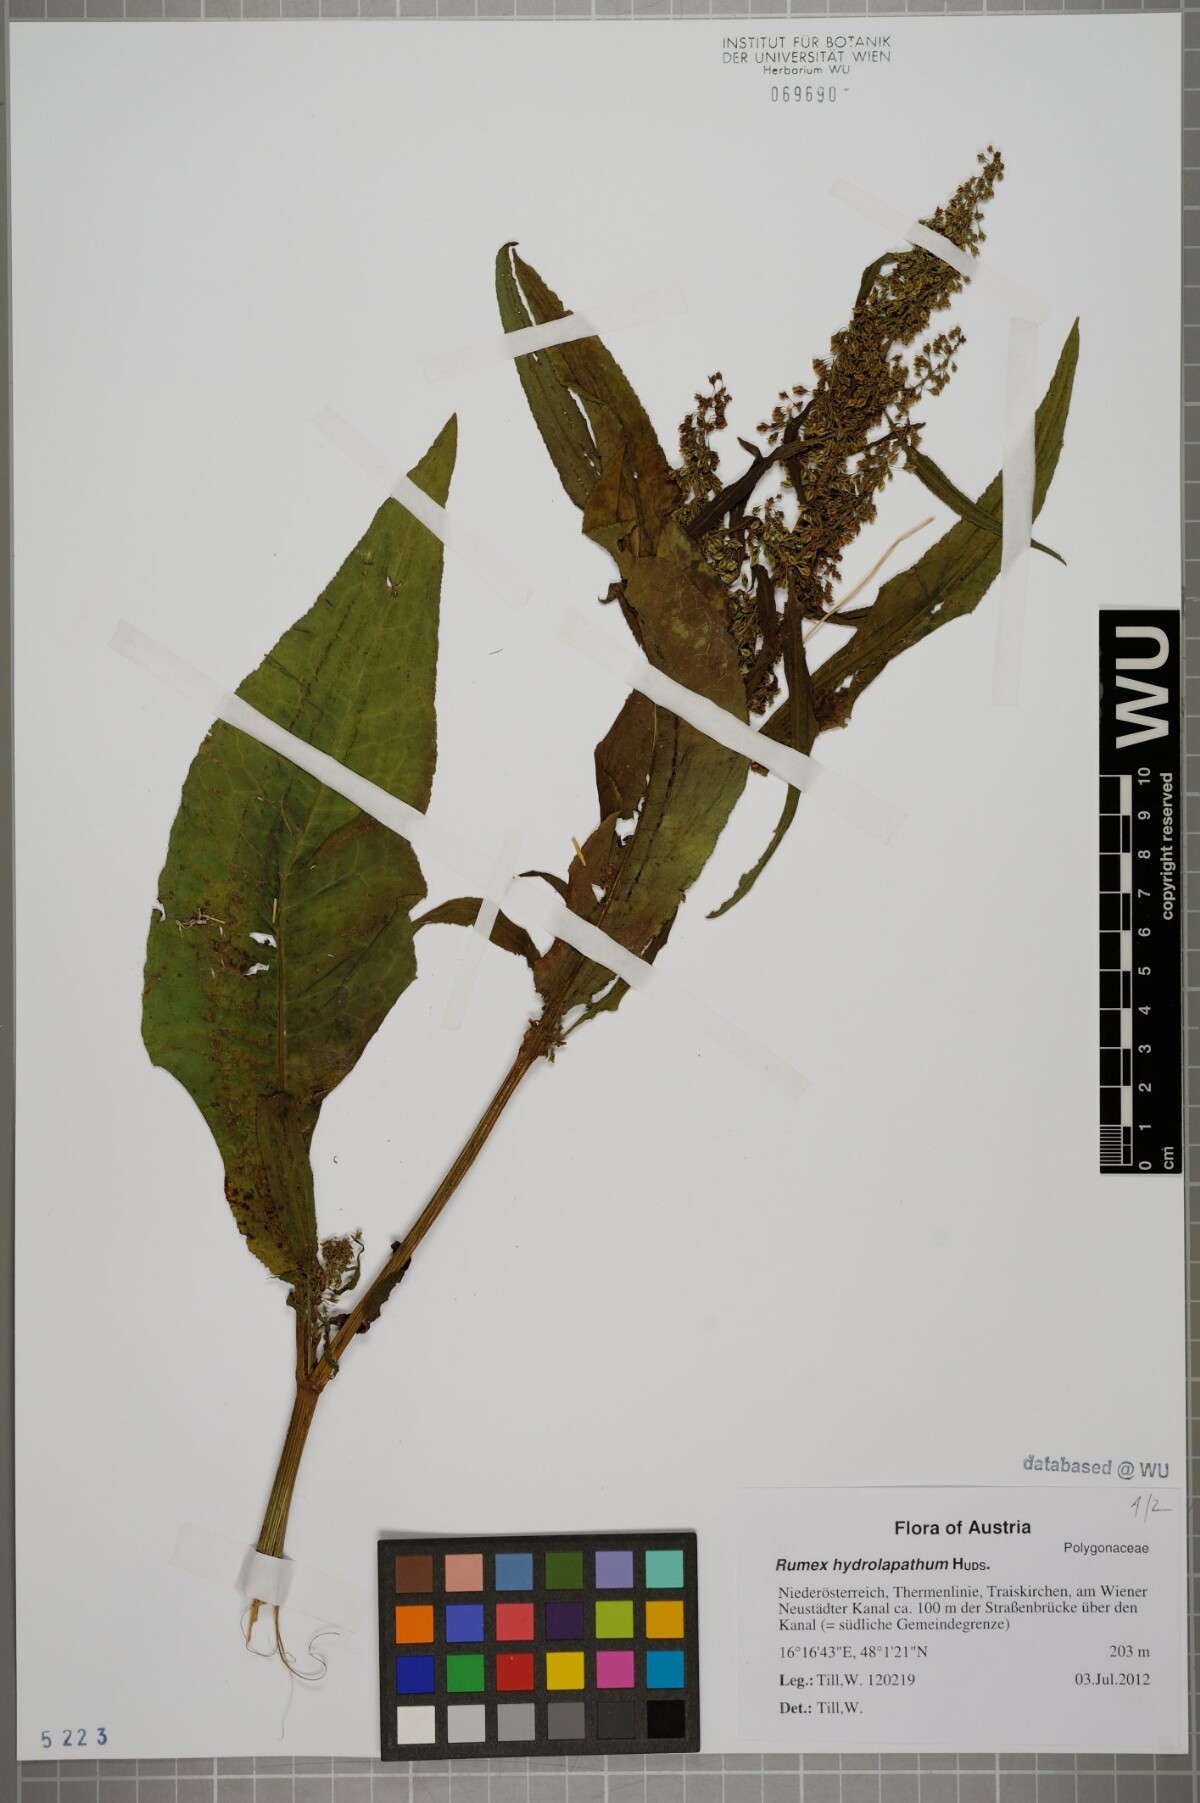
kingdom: Plantae
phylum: Tracheophyta
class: Magnoliopsida
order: Caryophyllales
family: Polygonaceae
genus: Rumex
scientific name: Rumex hydrolapathum
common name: Water dock
